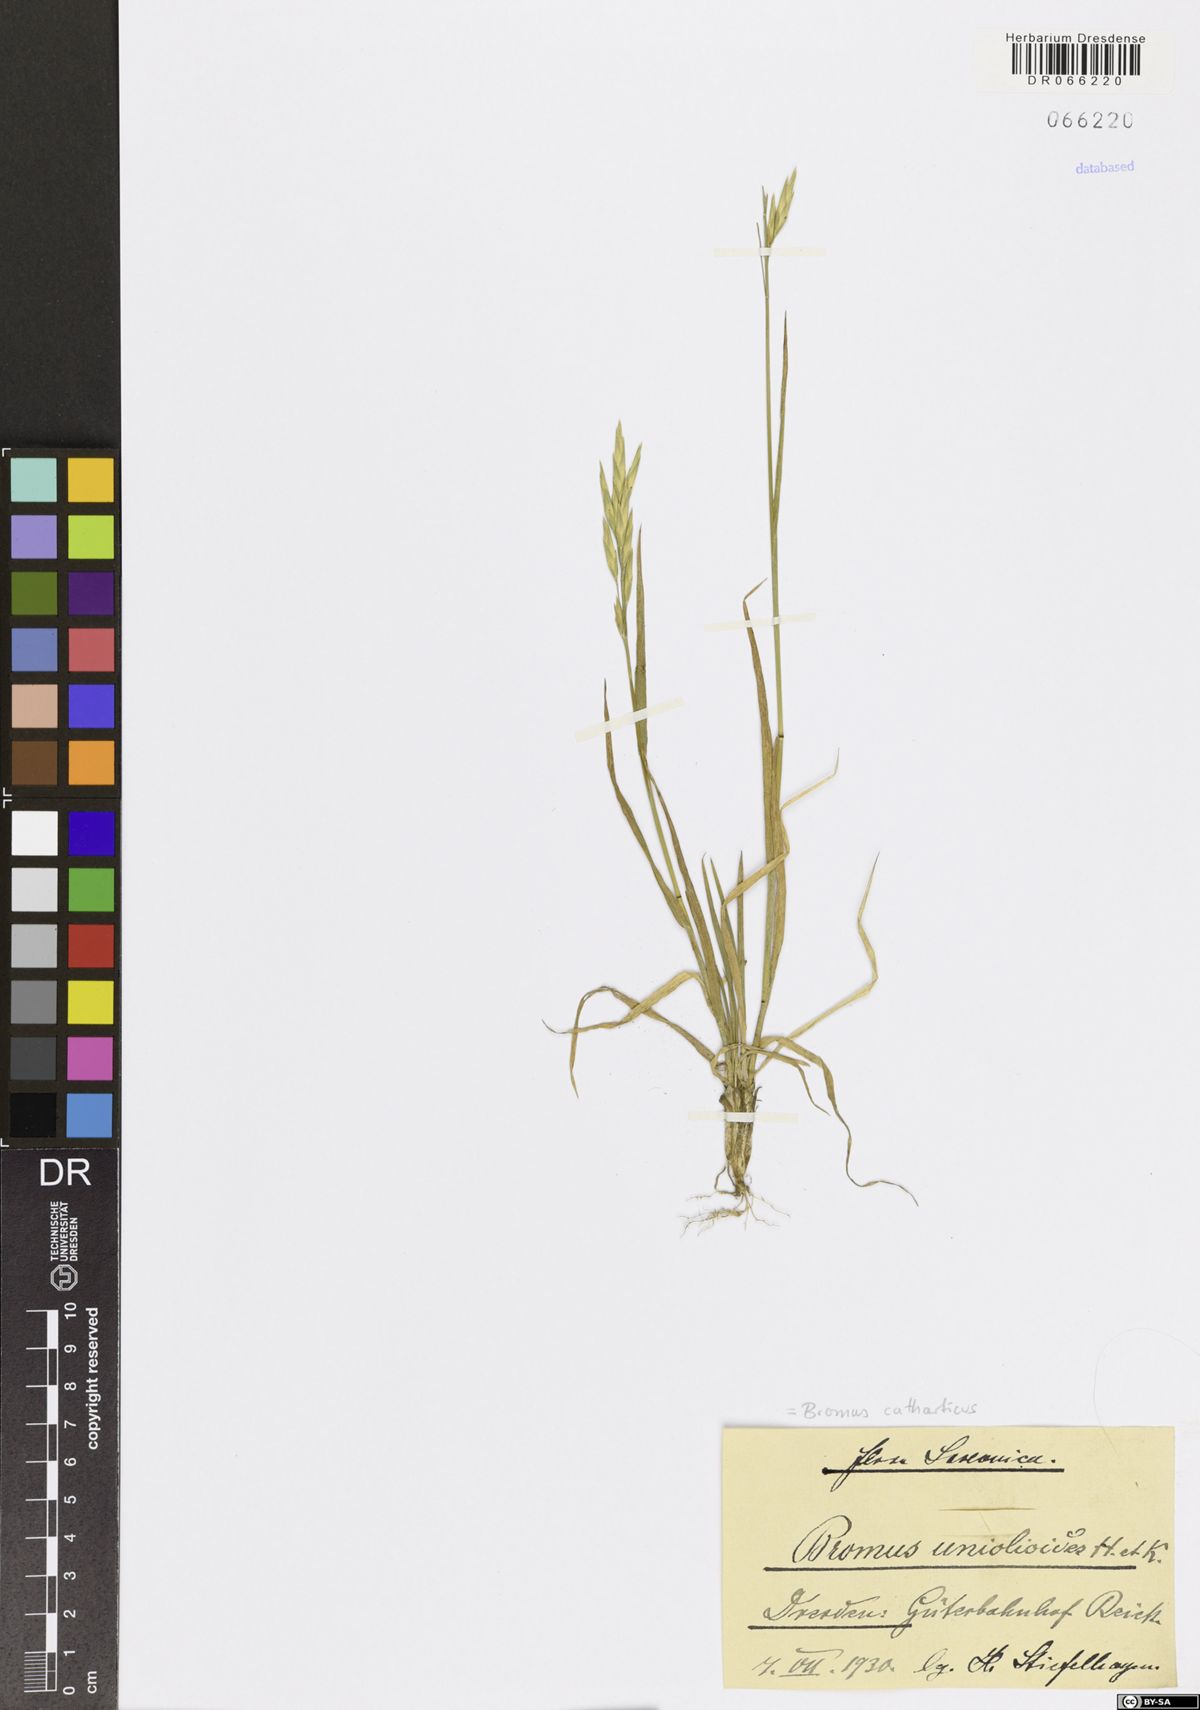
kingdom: Plantae
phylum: Tracheophyta
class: Liliopsida
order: Poales
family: Poaceae
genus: Bromus
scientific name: Bromus catharticus
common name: Rescuegrass
